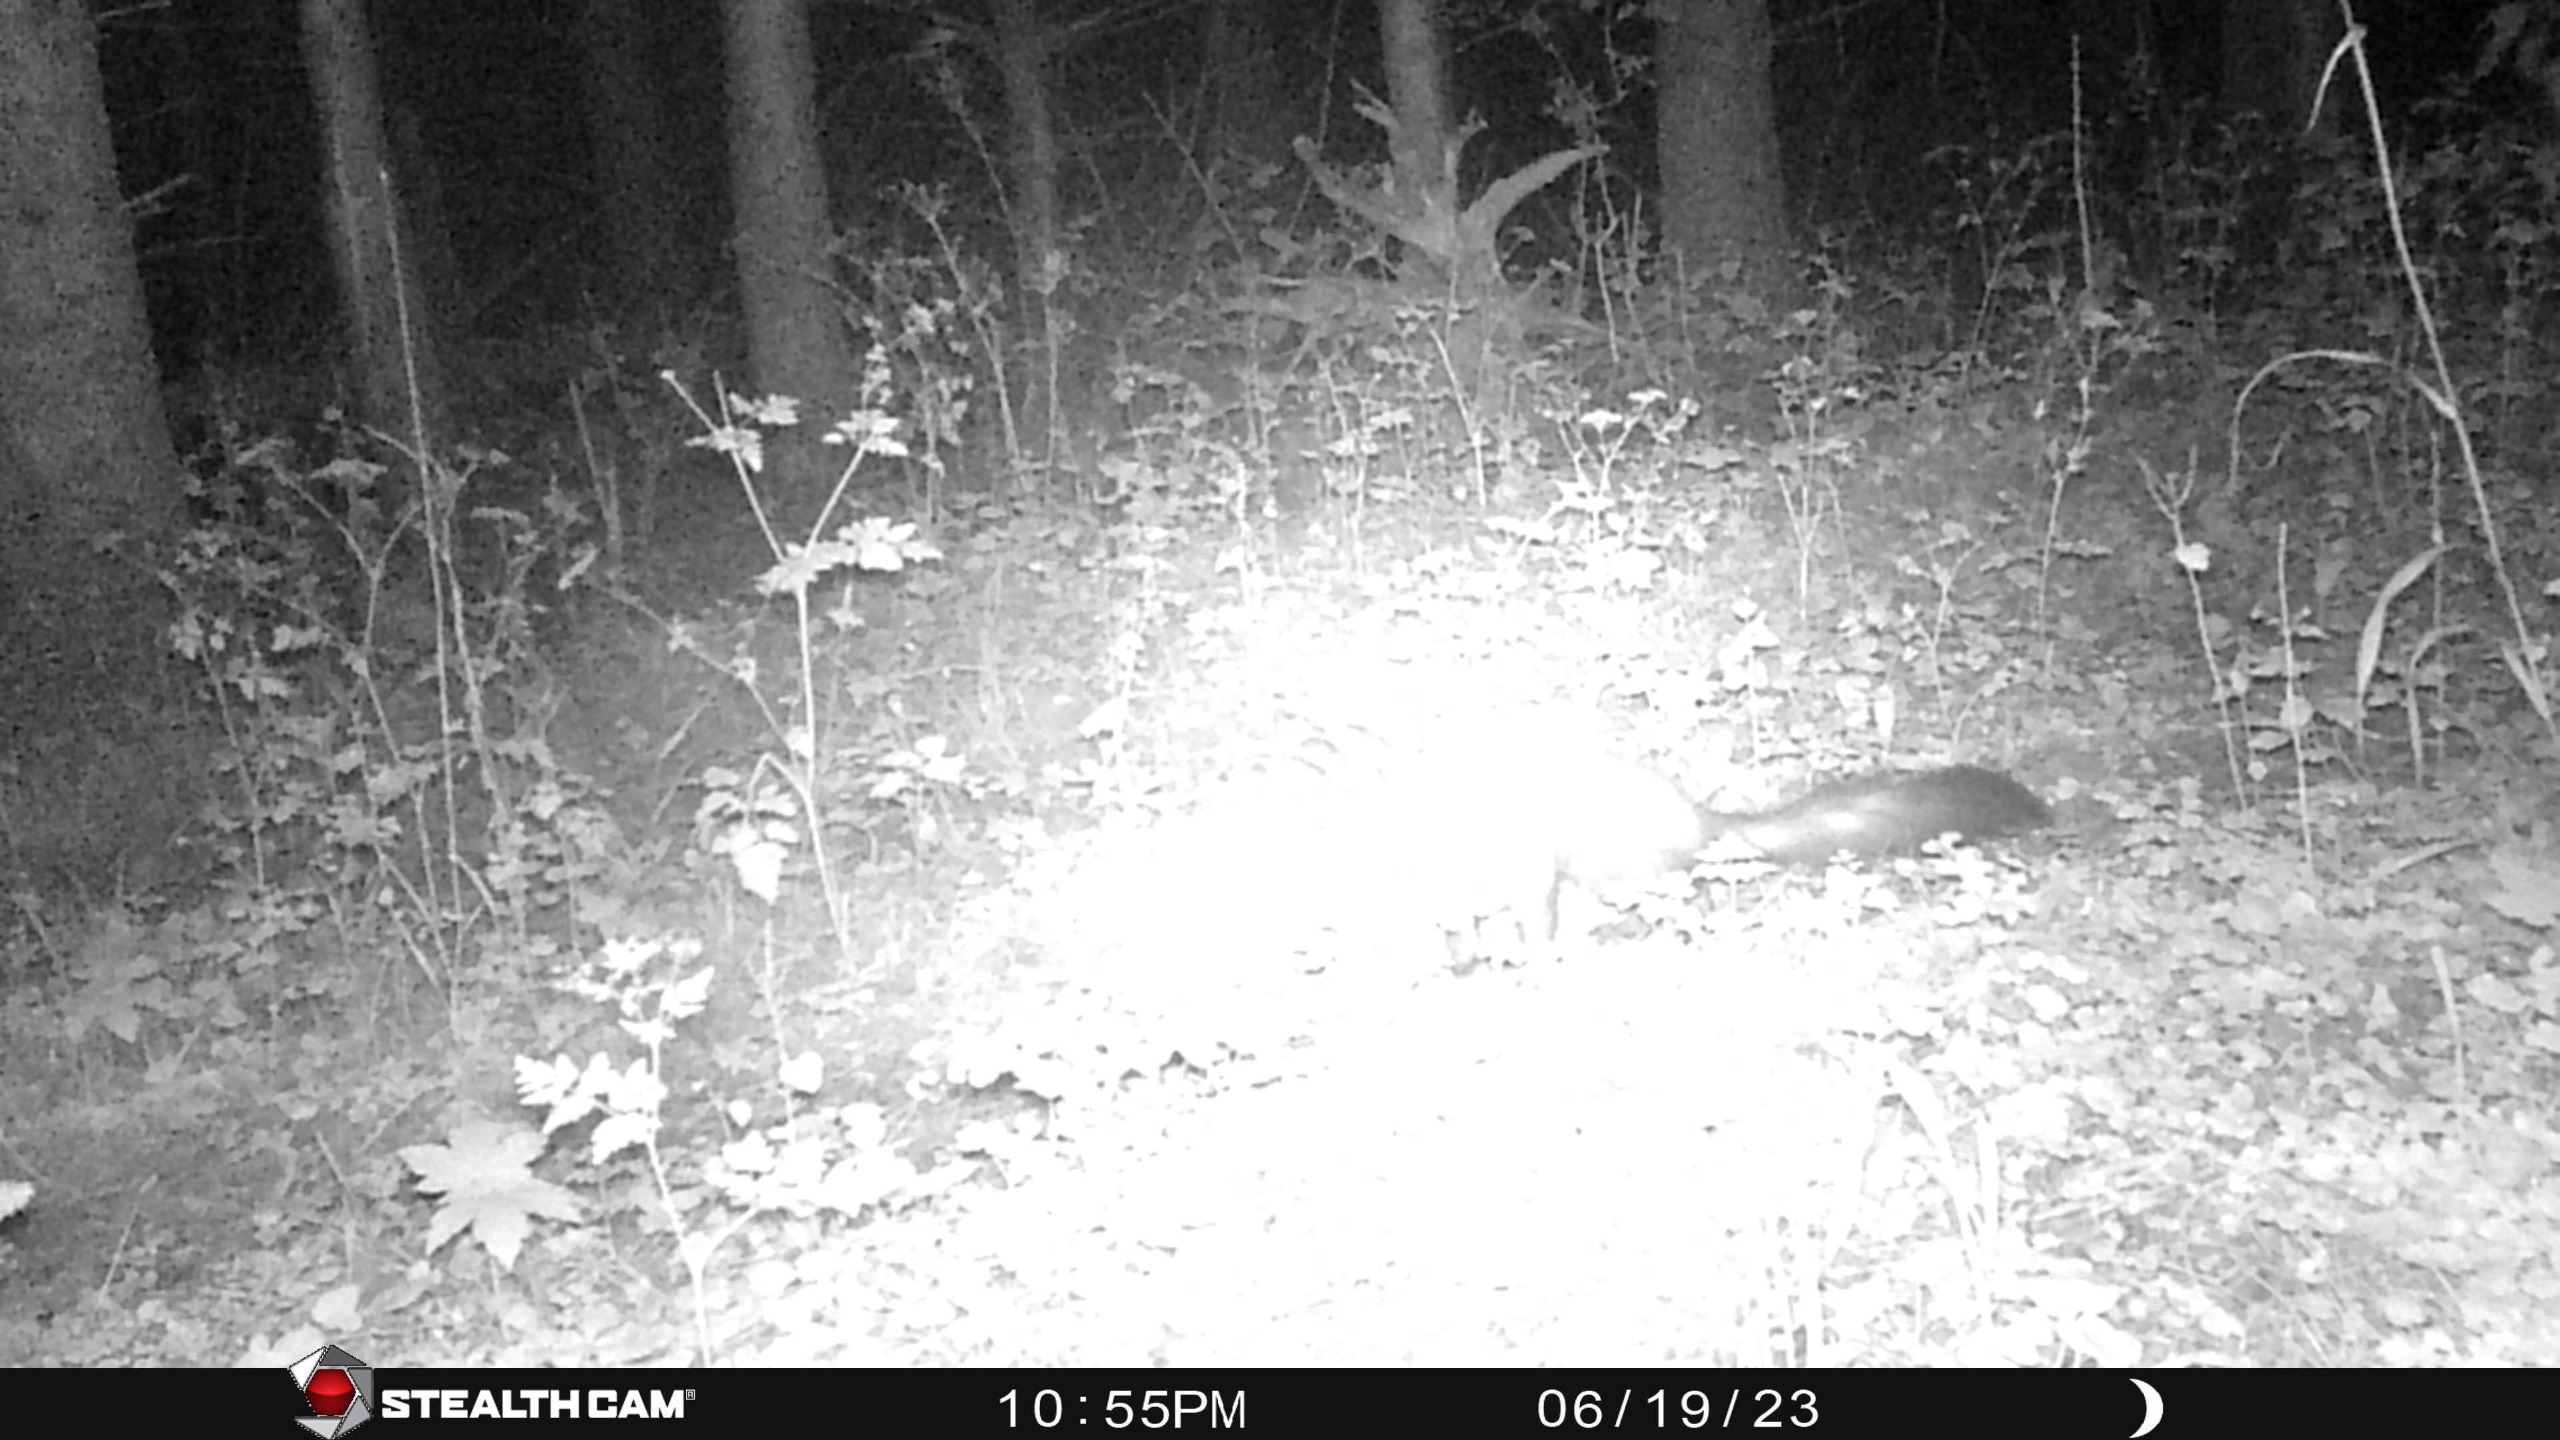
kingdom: Animalia
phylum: Chordata
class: Mammalia
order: Carnivora
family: Mustelidae
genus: Martes
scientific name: Martes foina
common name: Husmår
